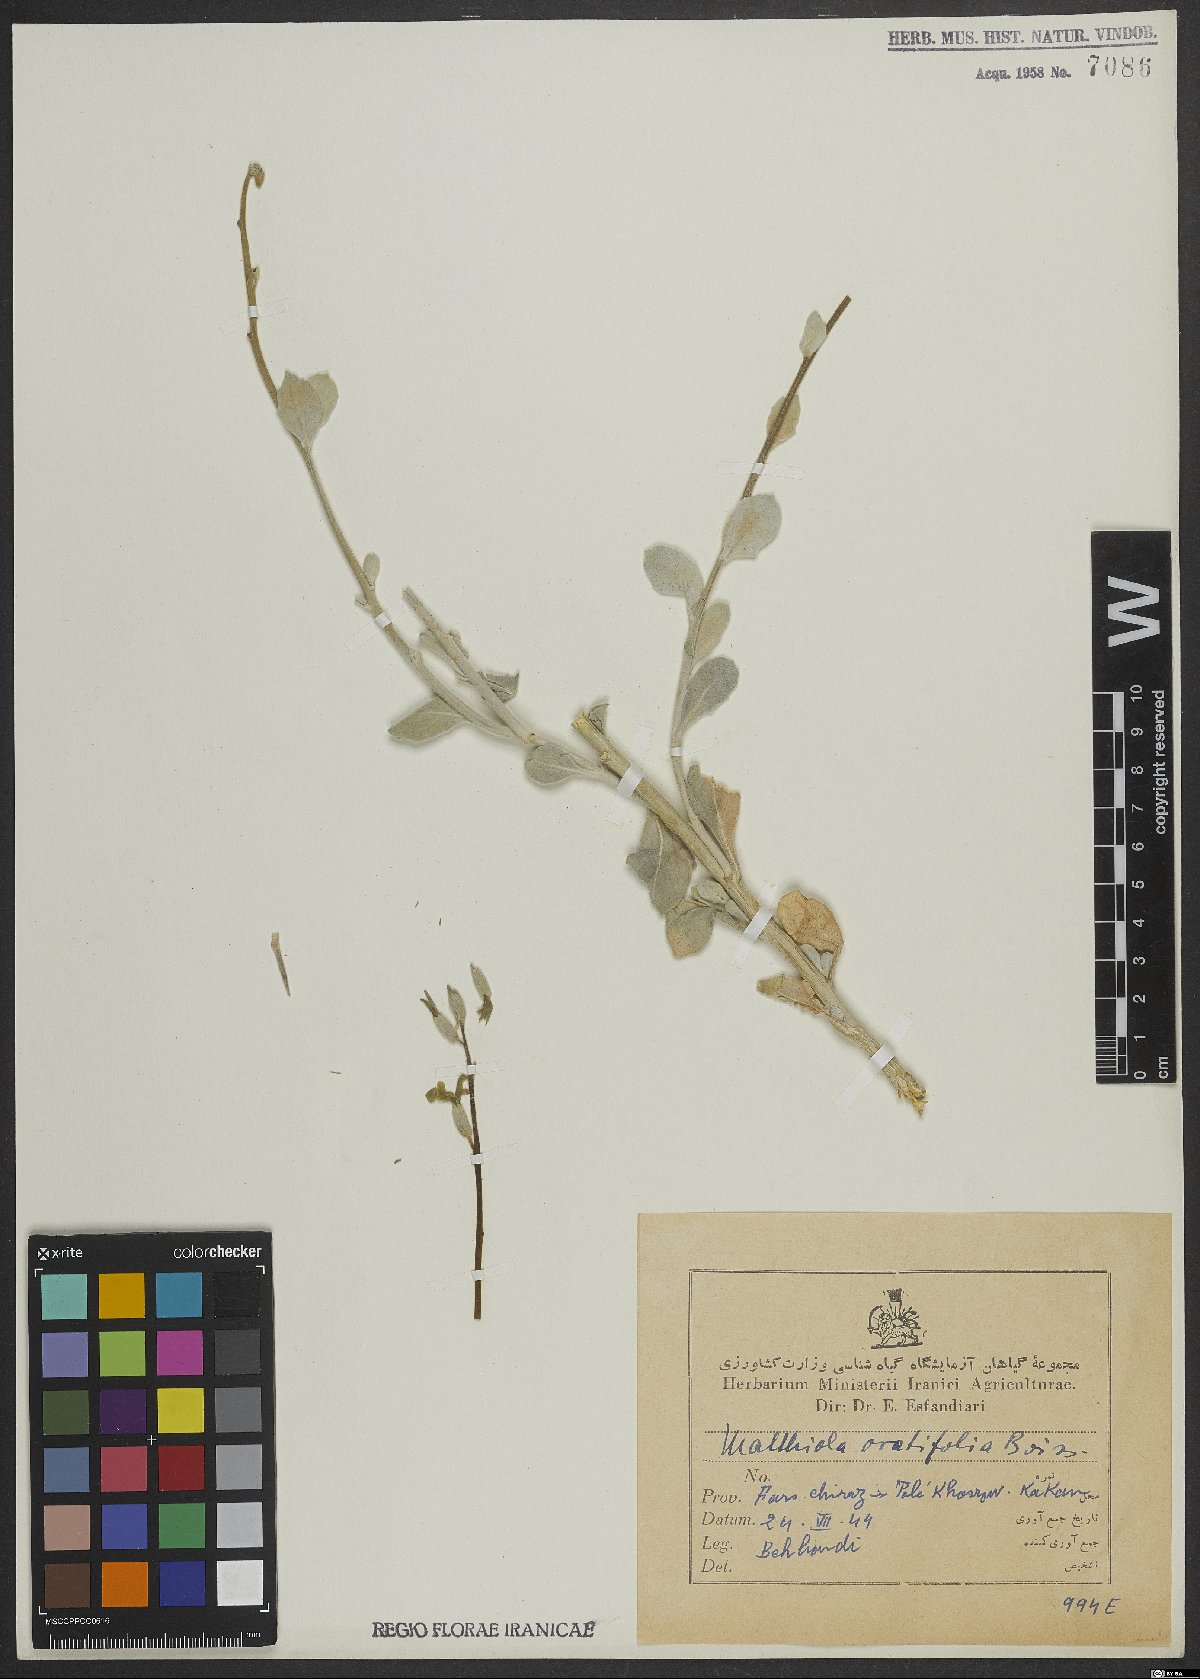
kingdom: Plantae
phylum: Tracheophyta
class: Magnoliopsida
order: Brassicales
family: Brassicaceae
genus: Matthiola
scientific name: Matthiola ovatifolia
